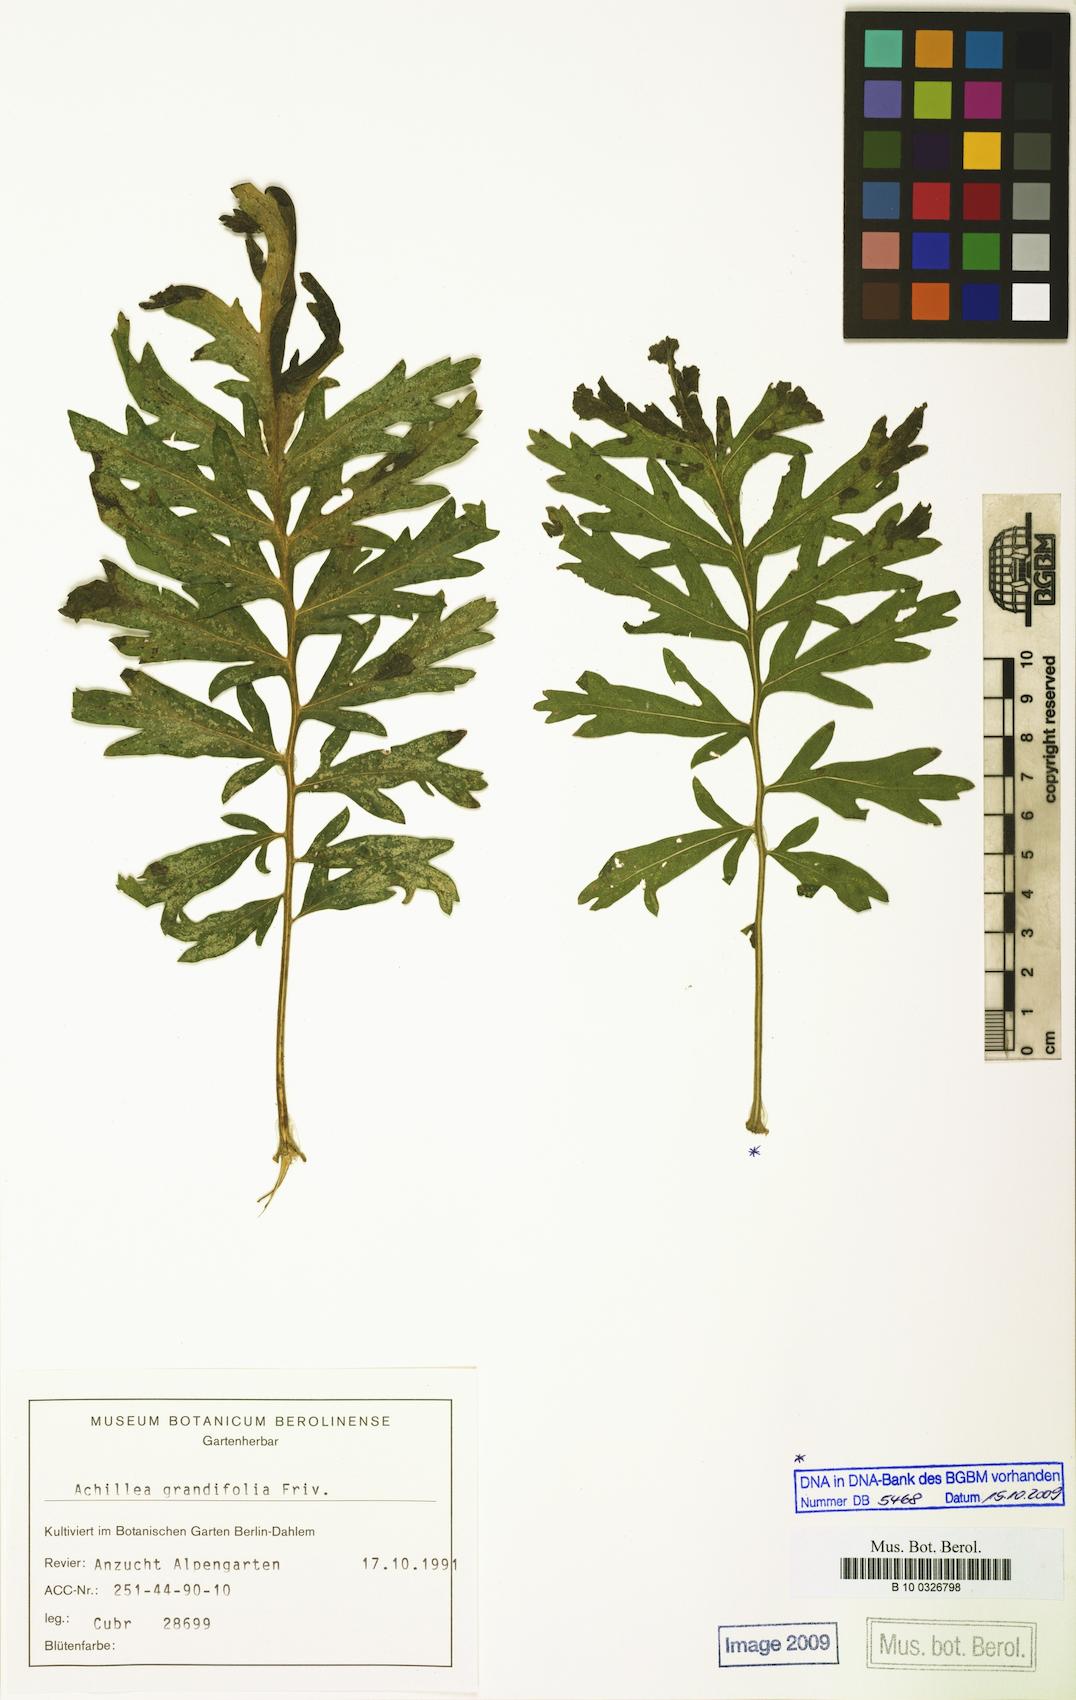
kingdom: Plantae
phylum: Tracheophyta
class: Magnoliopsida
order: Asterales
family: Asteraceae
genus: Achillea
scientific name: Achillea grandifolia
